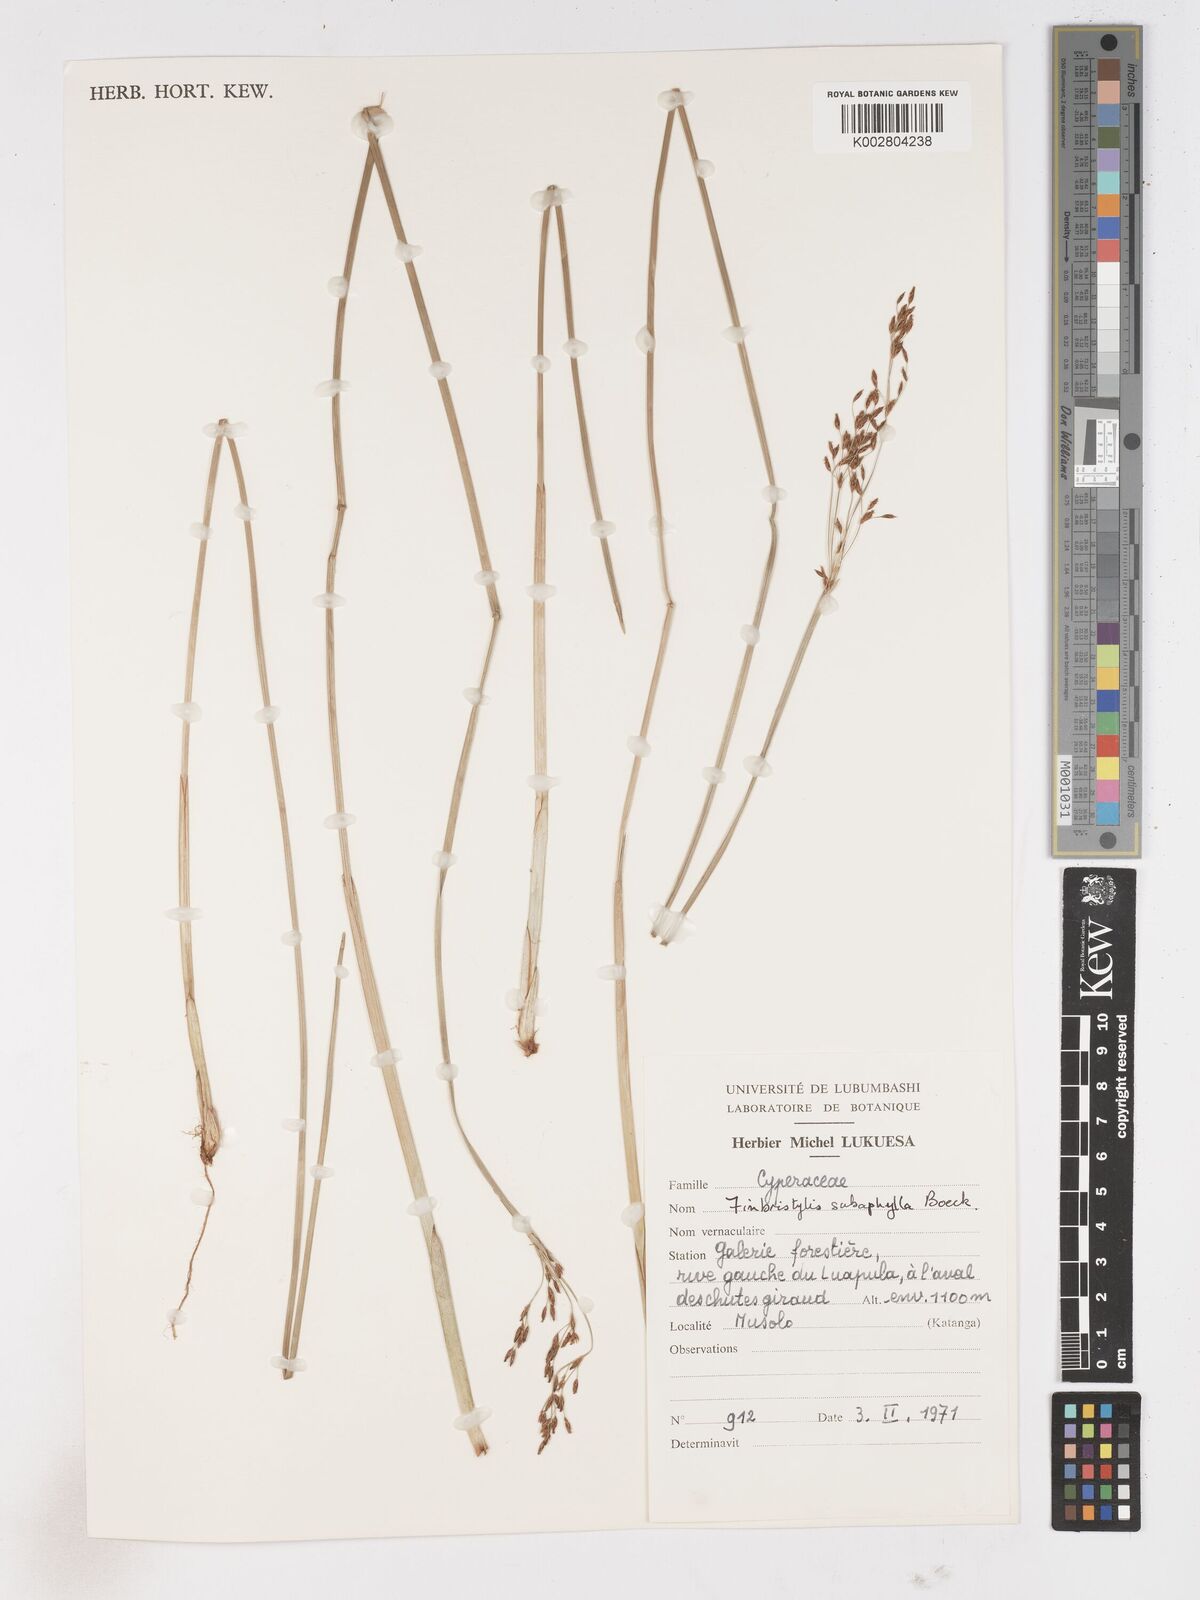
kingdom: Plantae
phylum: Tracheophyta
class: Liliopsida
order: Poales
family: Cyperaceae
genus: Fimbristylis
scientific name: Fimbristylis subaphylla
